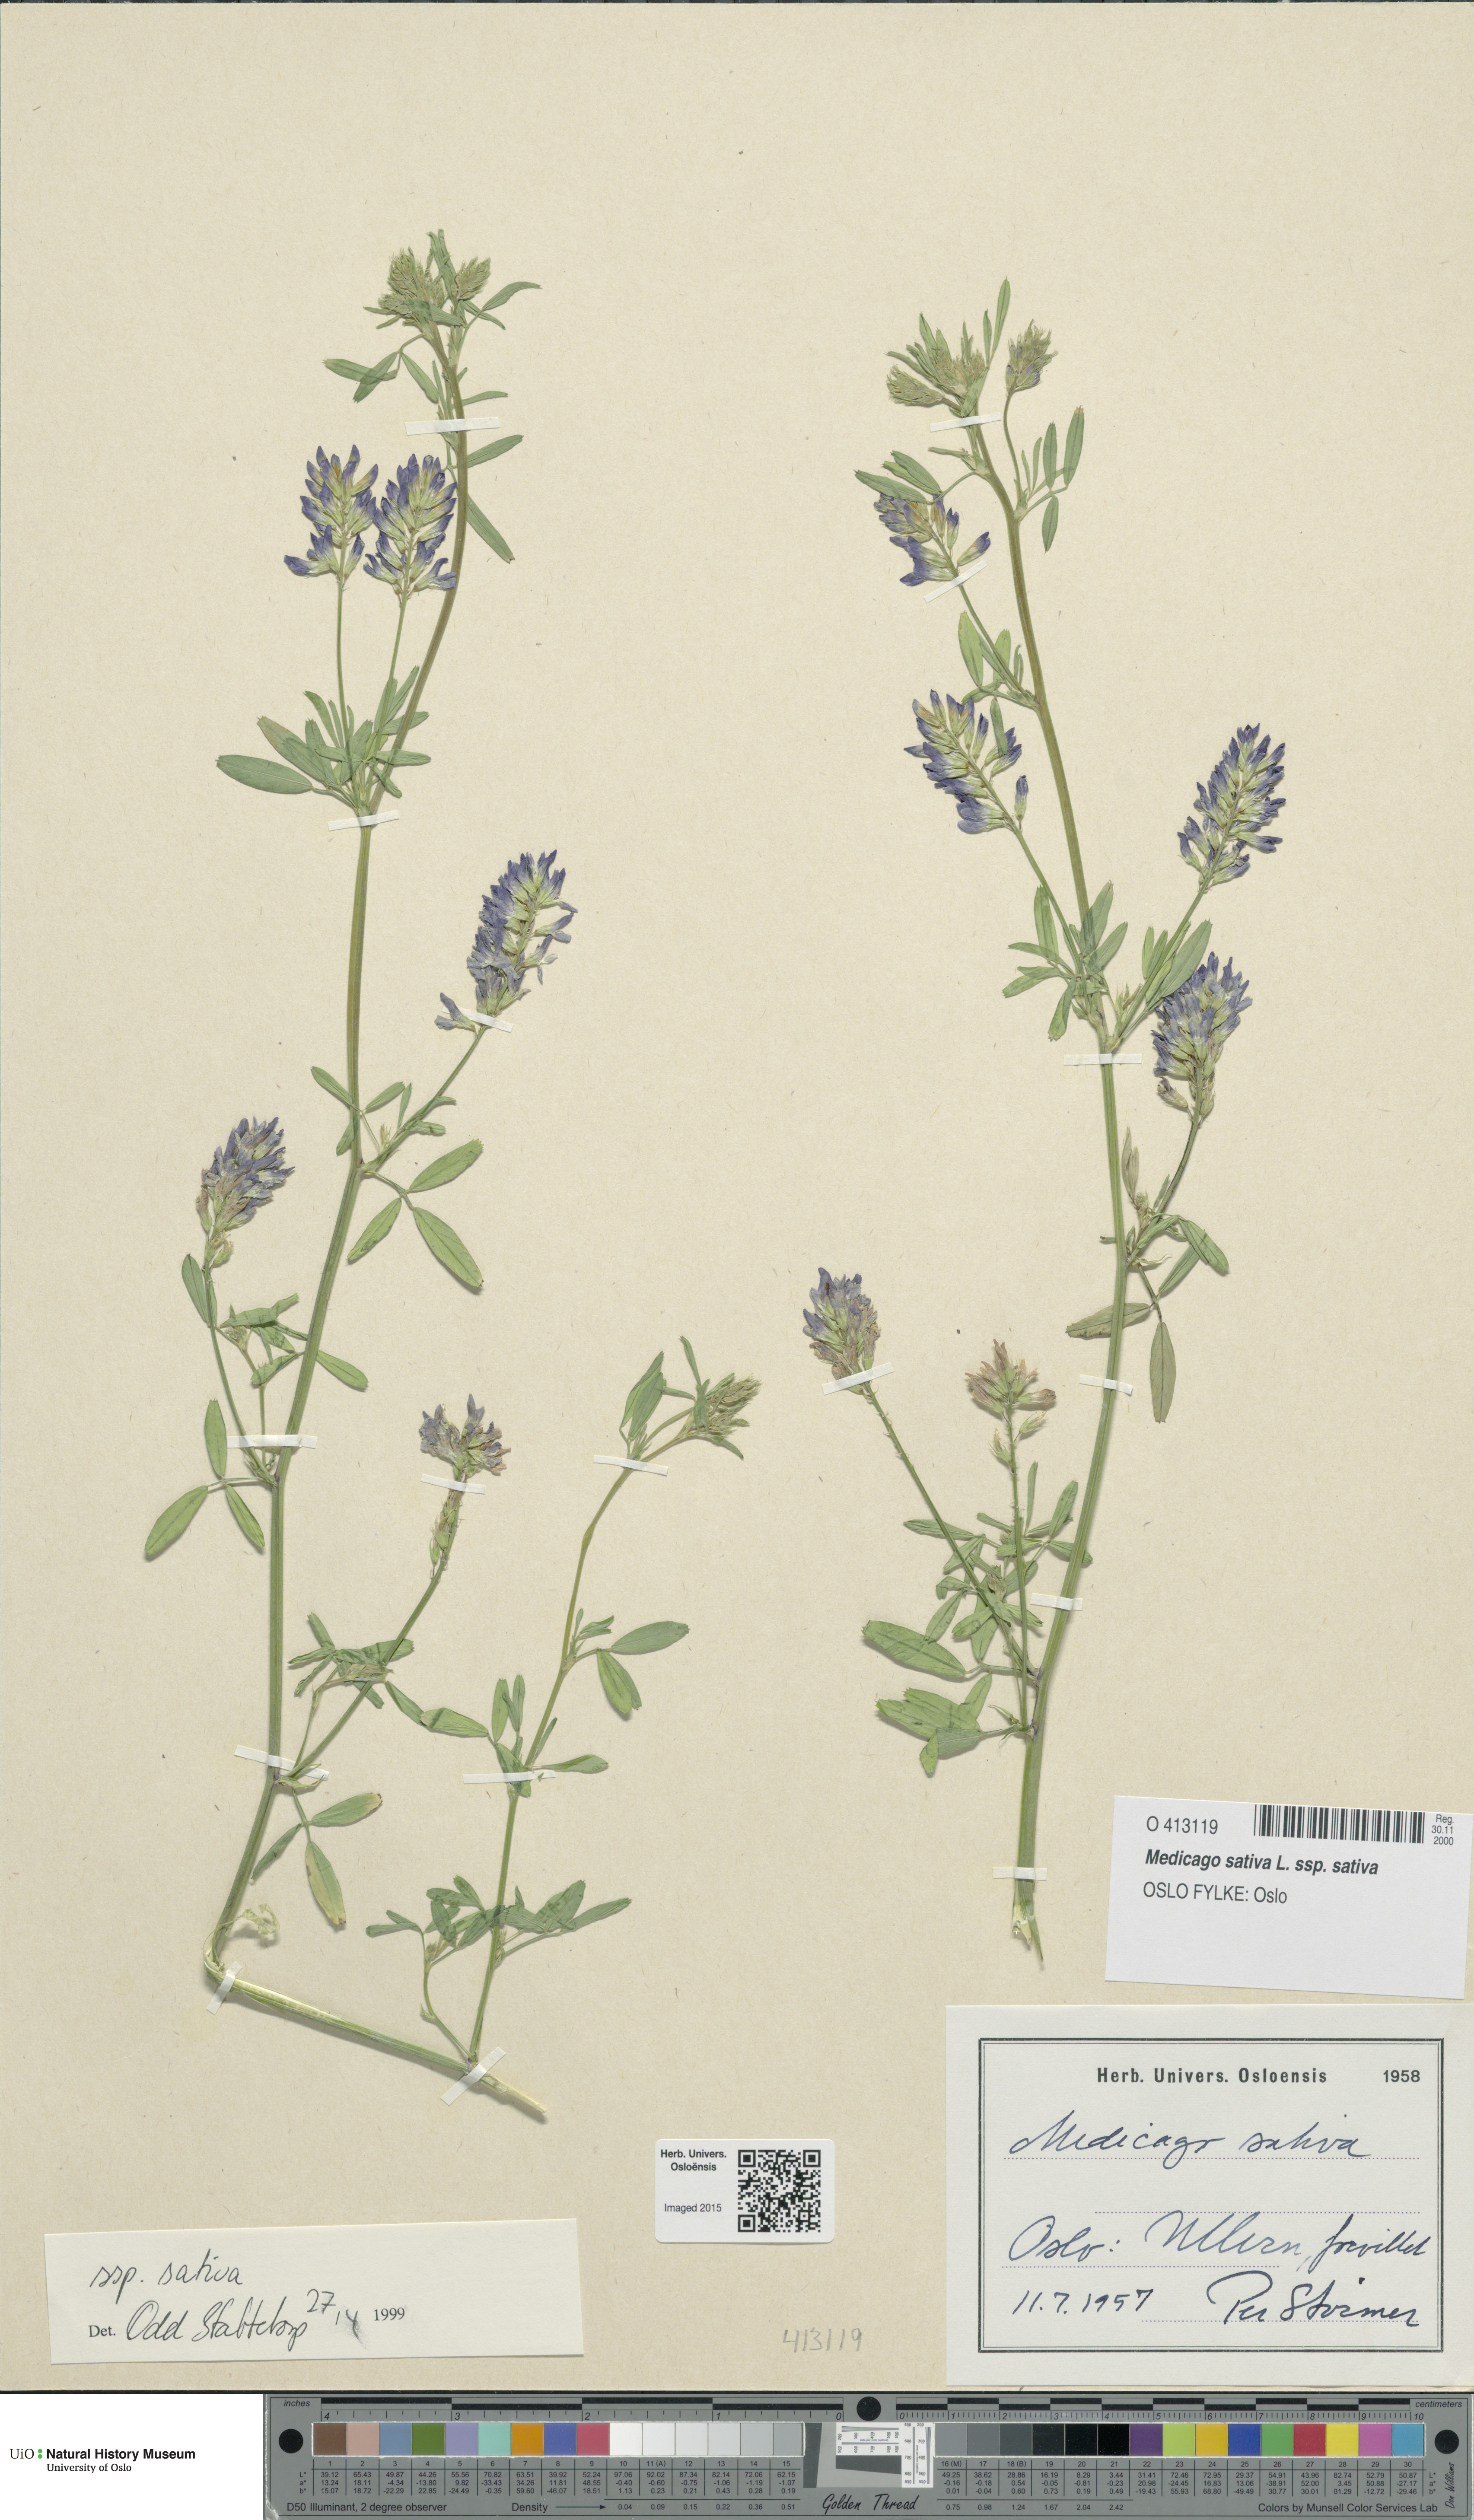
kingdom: Plantae
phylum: Tracheophyta
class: Magnoliopsida
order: Fabales
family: Fabaceae
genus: Medicago
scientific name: Medicago sativa
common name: Alfalfa
